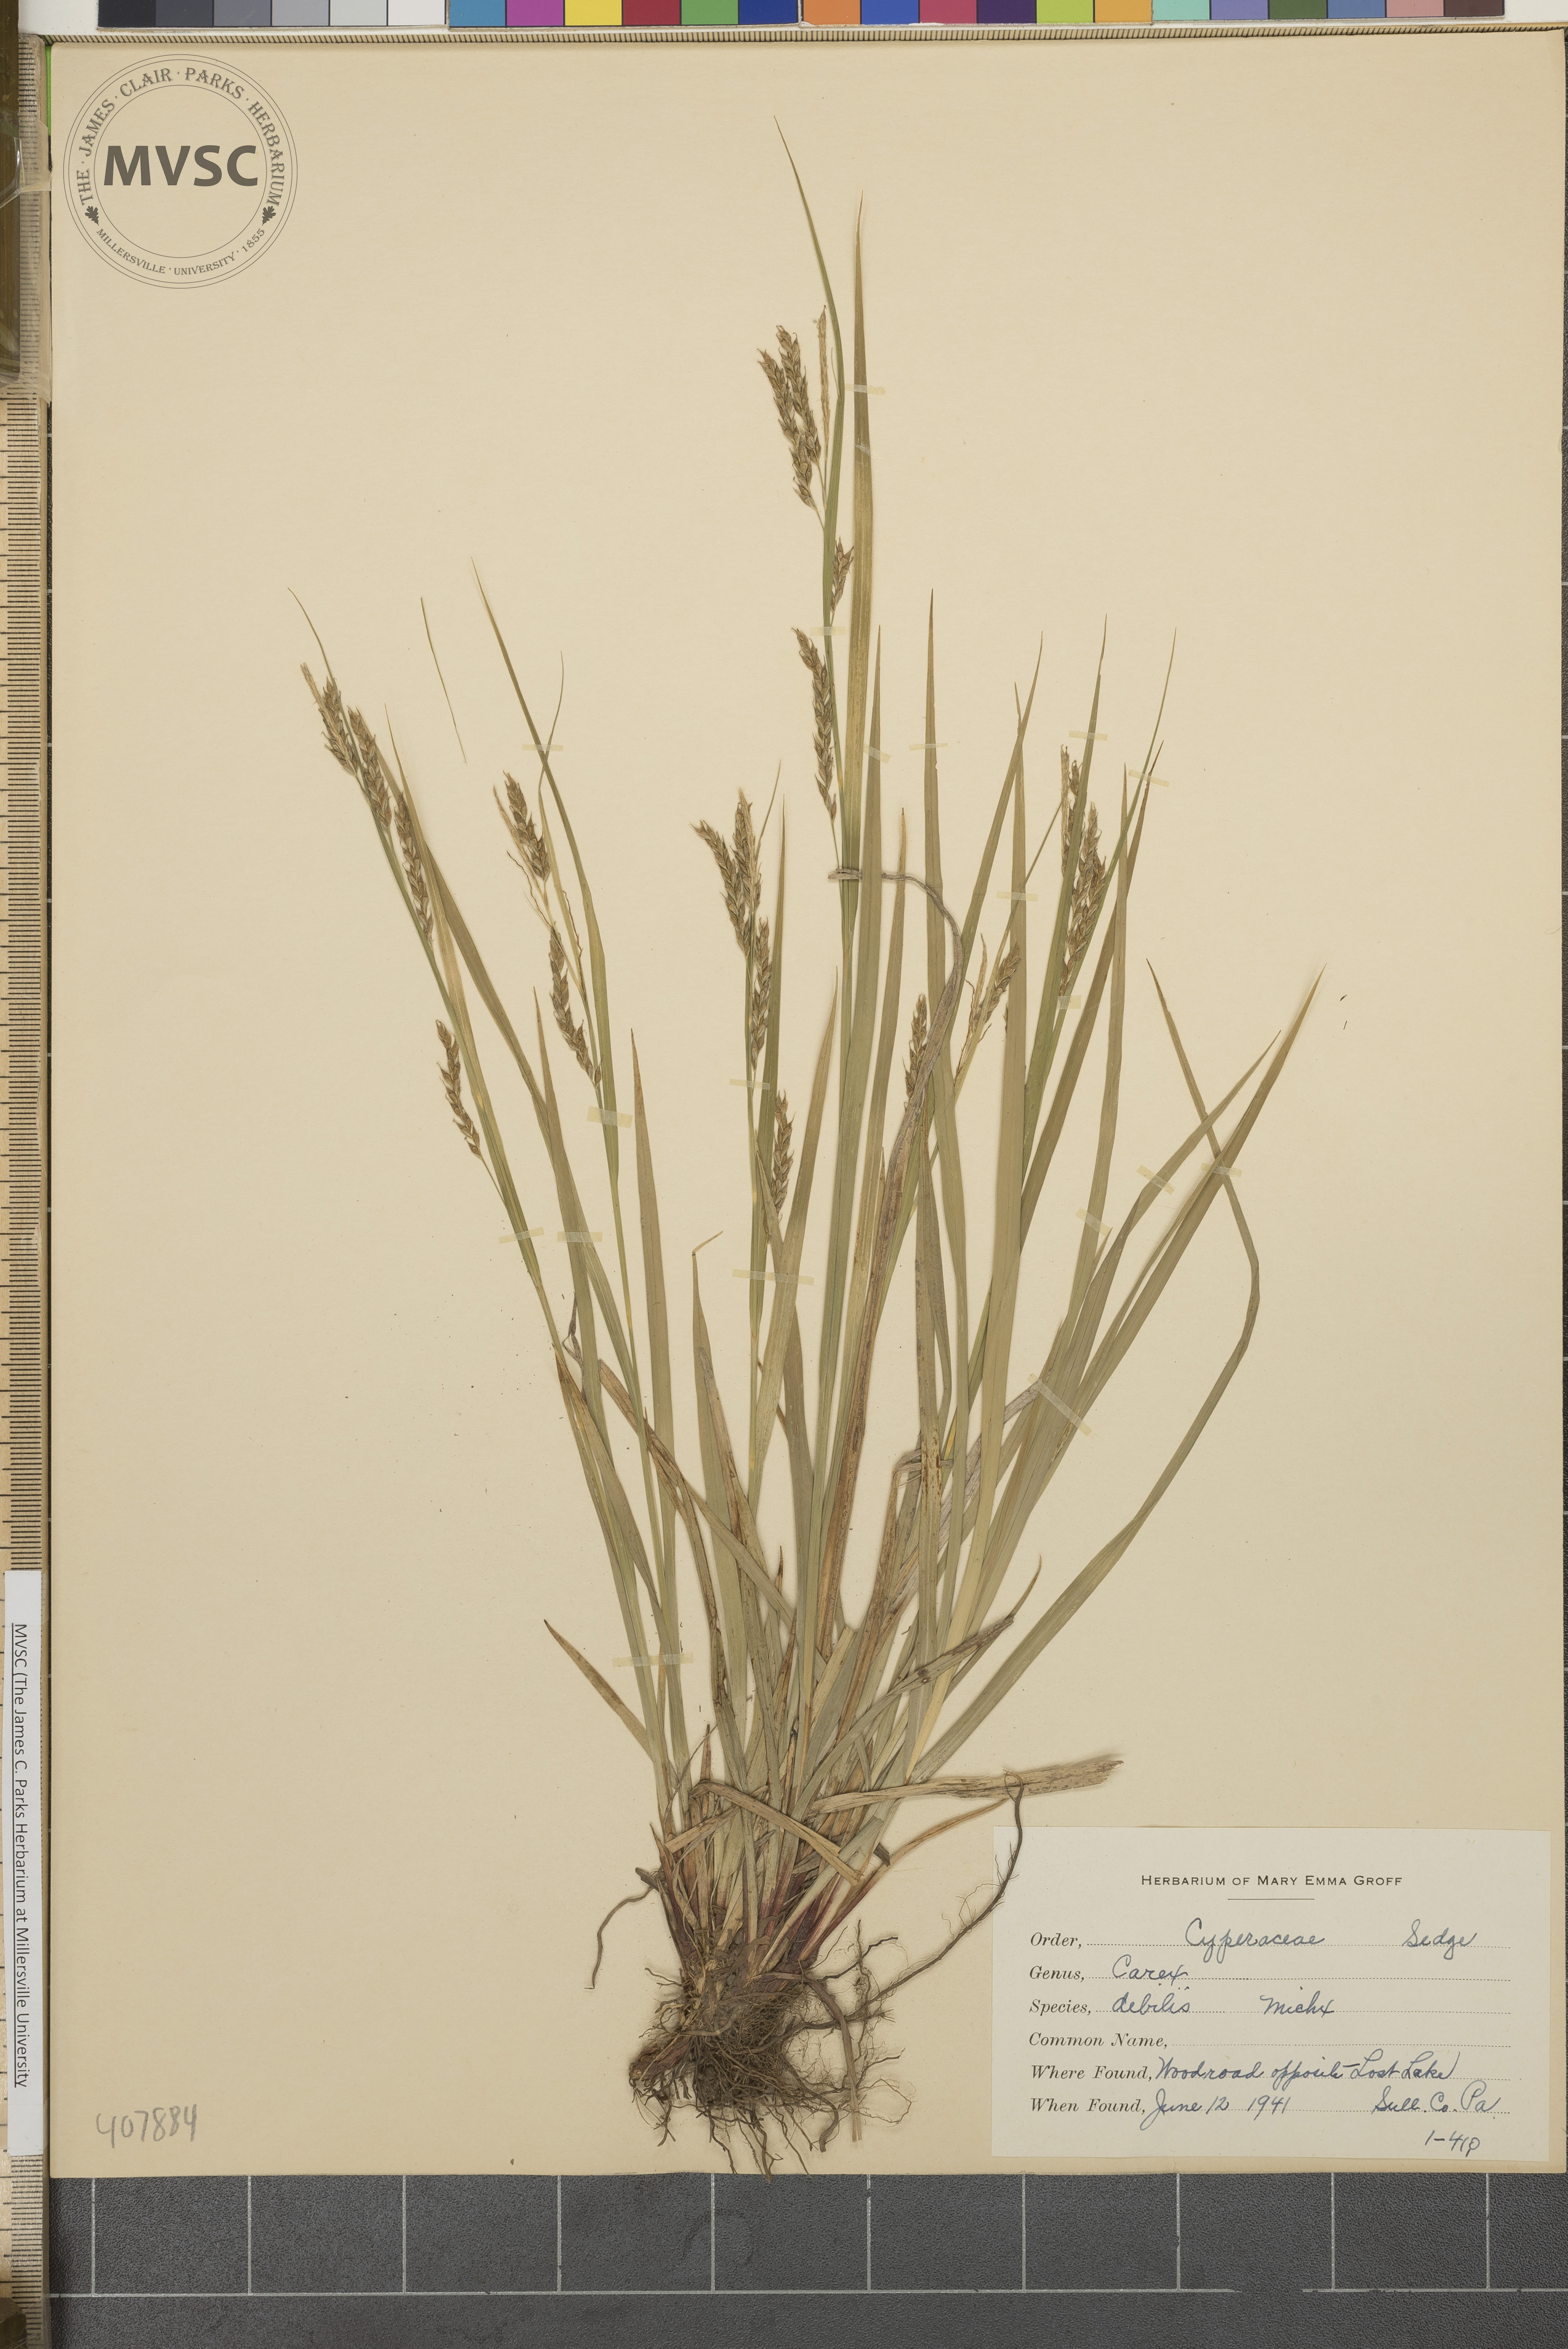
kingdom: Plantae
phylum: Tracheophyta
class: Liliopsida
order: Poales
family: Cyperaceae
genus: Carex
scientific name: Carex debilis
